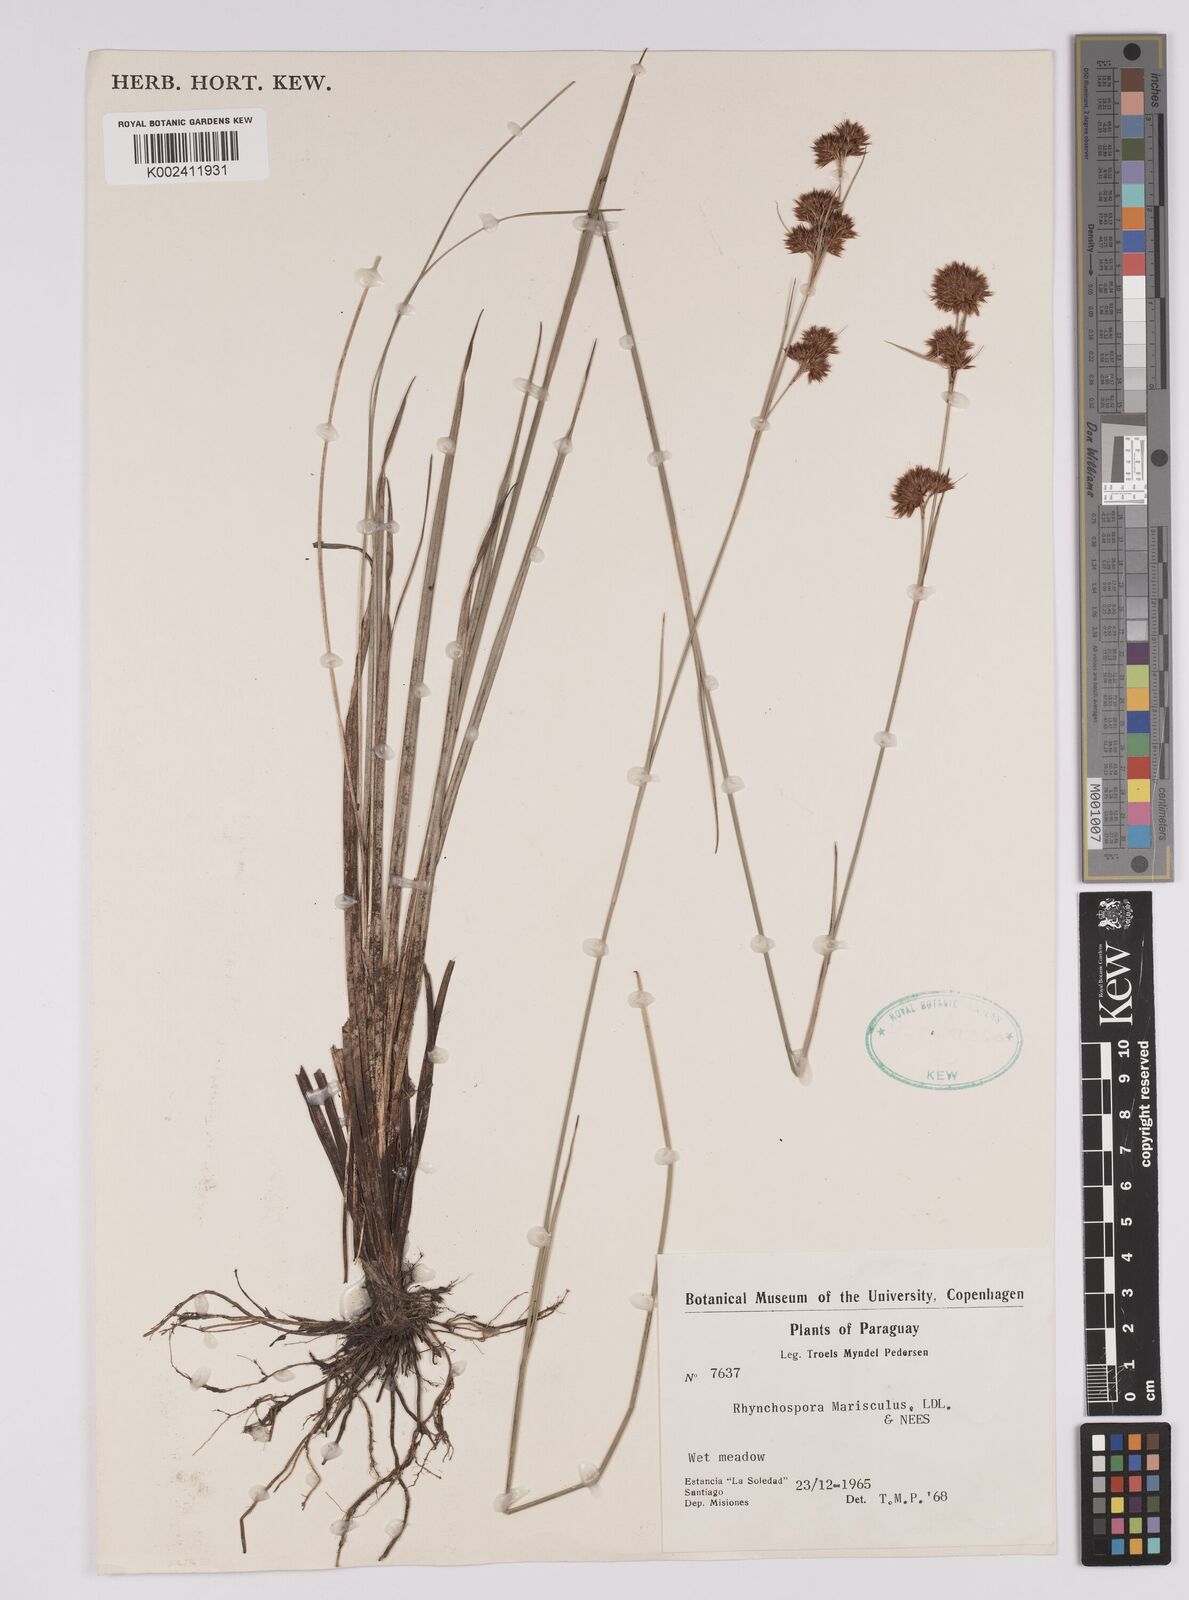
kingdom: Plantae
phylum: Tracheophyta
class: Liliopsida
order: Poales
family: Cyperaceae
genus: Rhynchospora
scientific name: Rhynchospora marisculus
